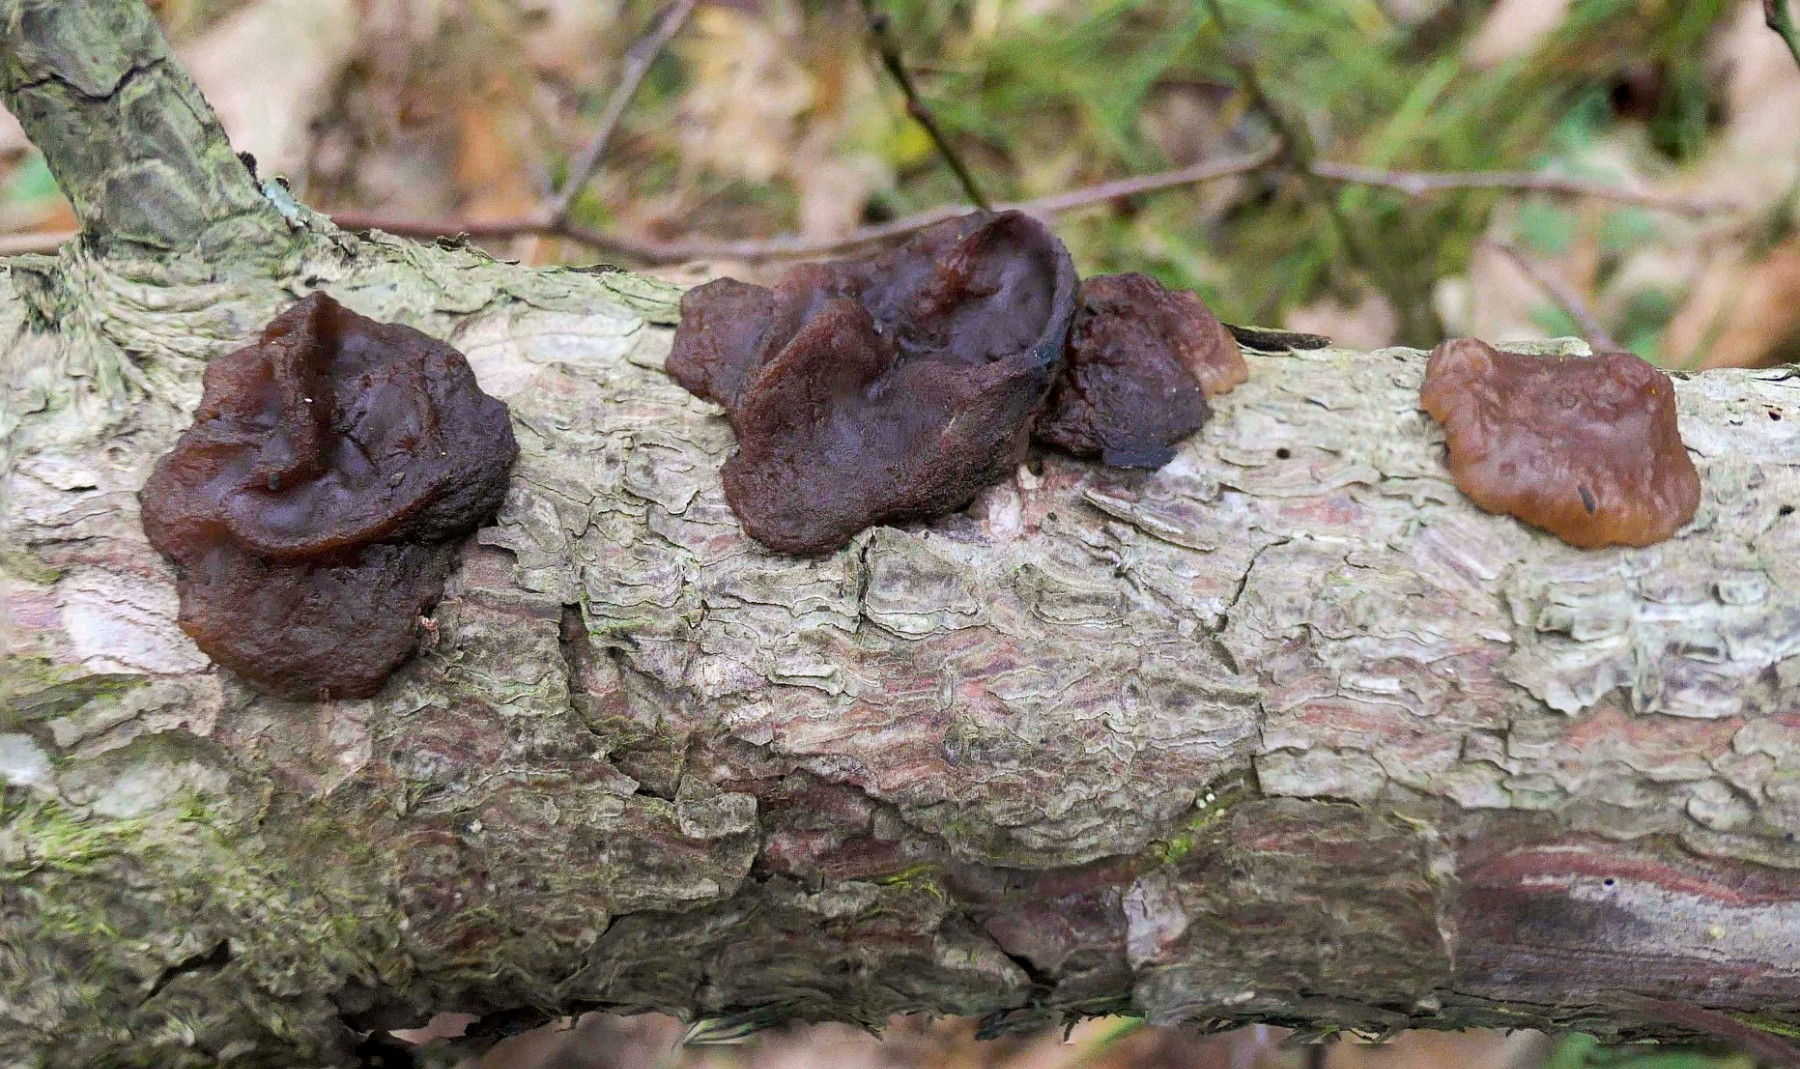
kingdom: Fungi
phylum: Basidiomycota
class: Agaricomycetes
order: Auriculariales
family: Auriculariaceae
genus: Exidia
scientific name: Exidia saccharina
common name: kandis-bævretop
